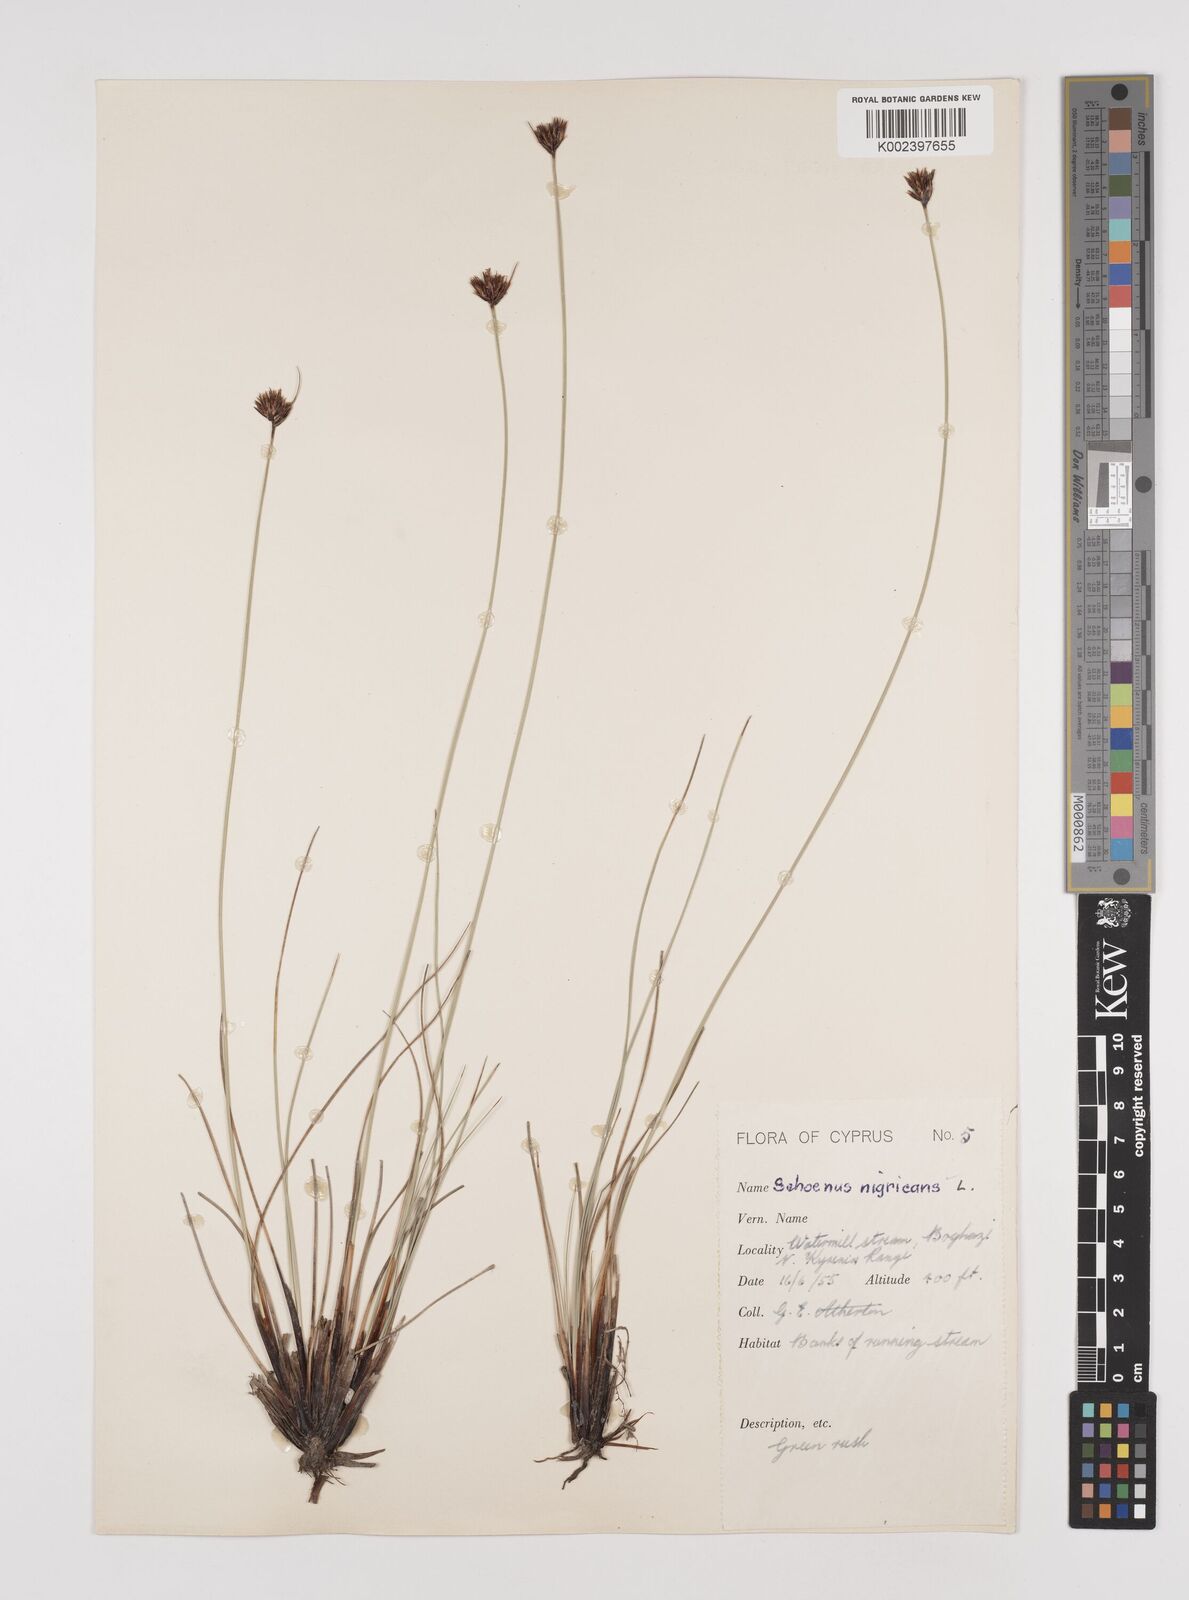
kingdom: Plantae
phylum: Tracheophyta
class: Liliopsida
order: Poales
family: Cyperaceae
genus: Schoenus
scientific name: Schoenus nigricans
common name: Black bog-rush
